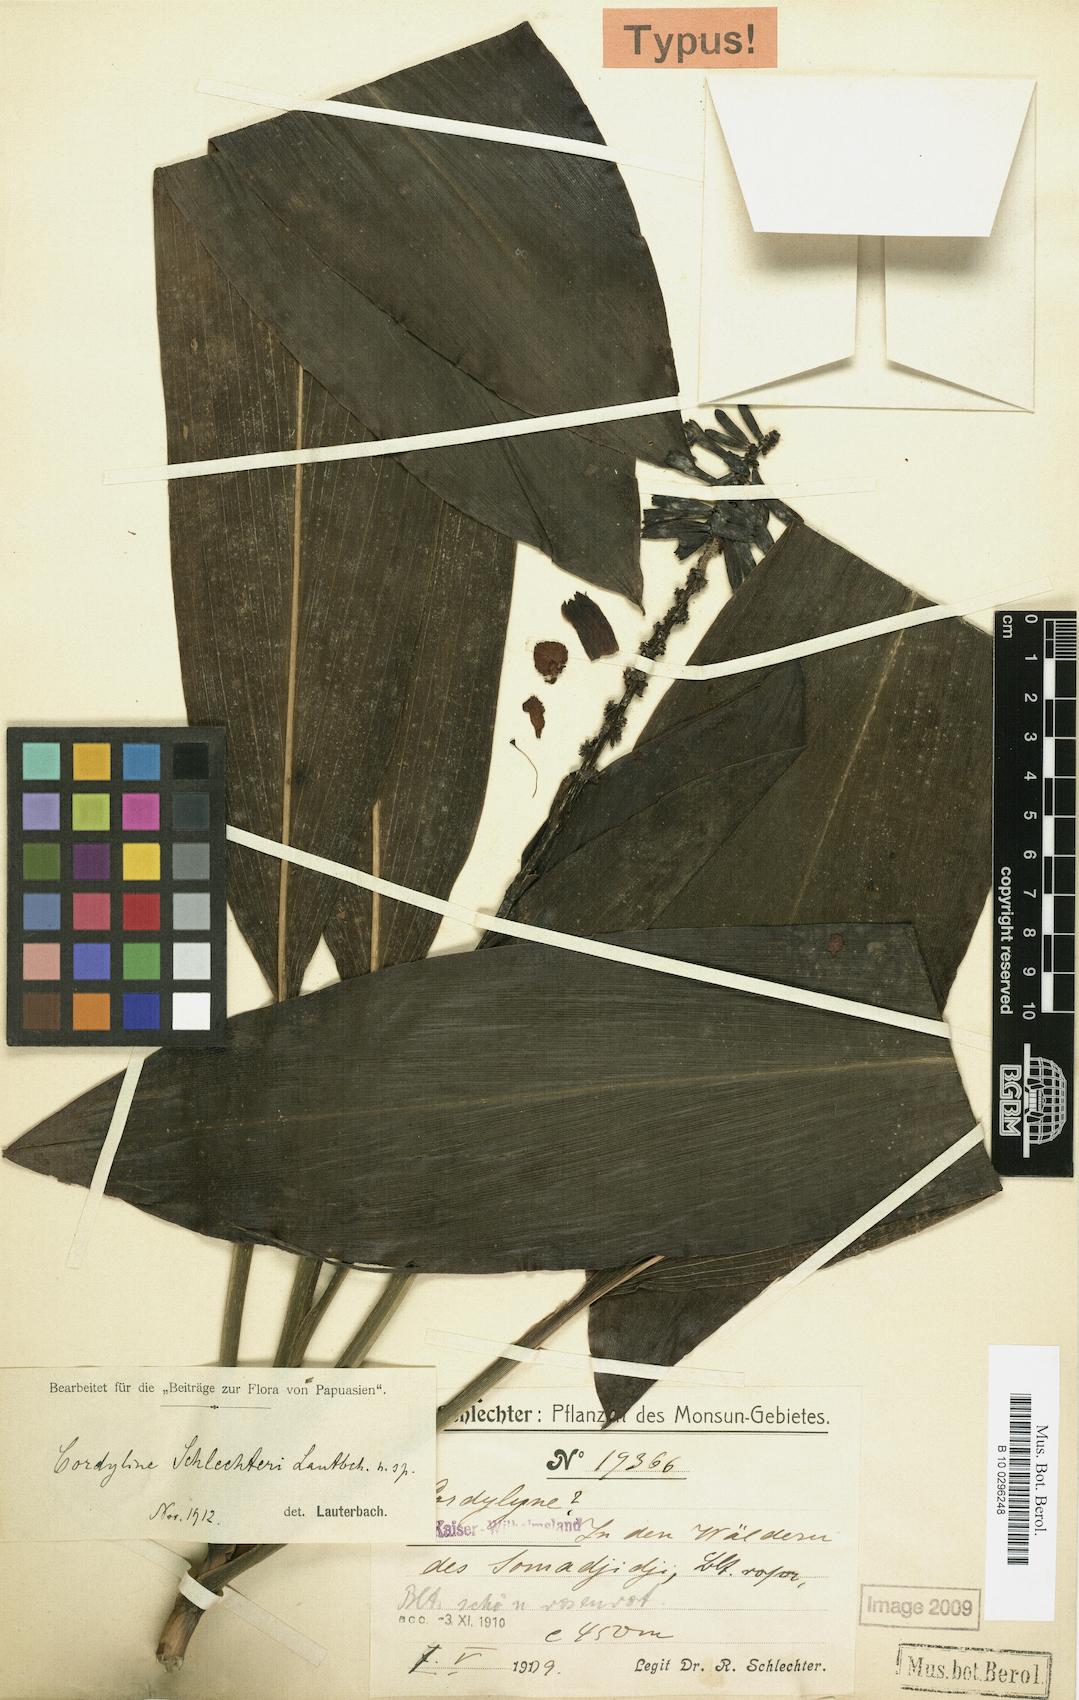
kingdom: Plantae
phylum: Tracheophyta
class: Liliopsida
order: Asparagales
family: Asparagaceae
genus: Cordyline
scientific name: Cordyline schlechteri
